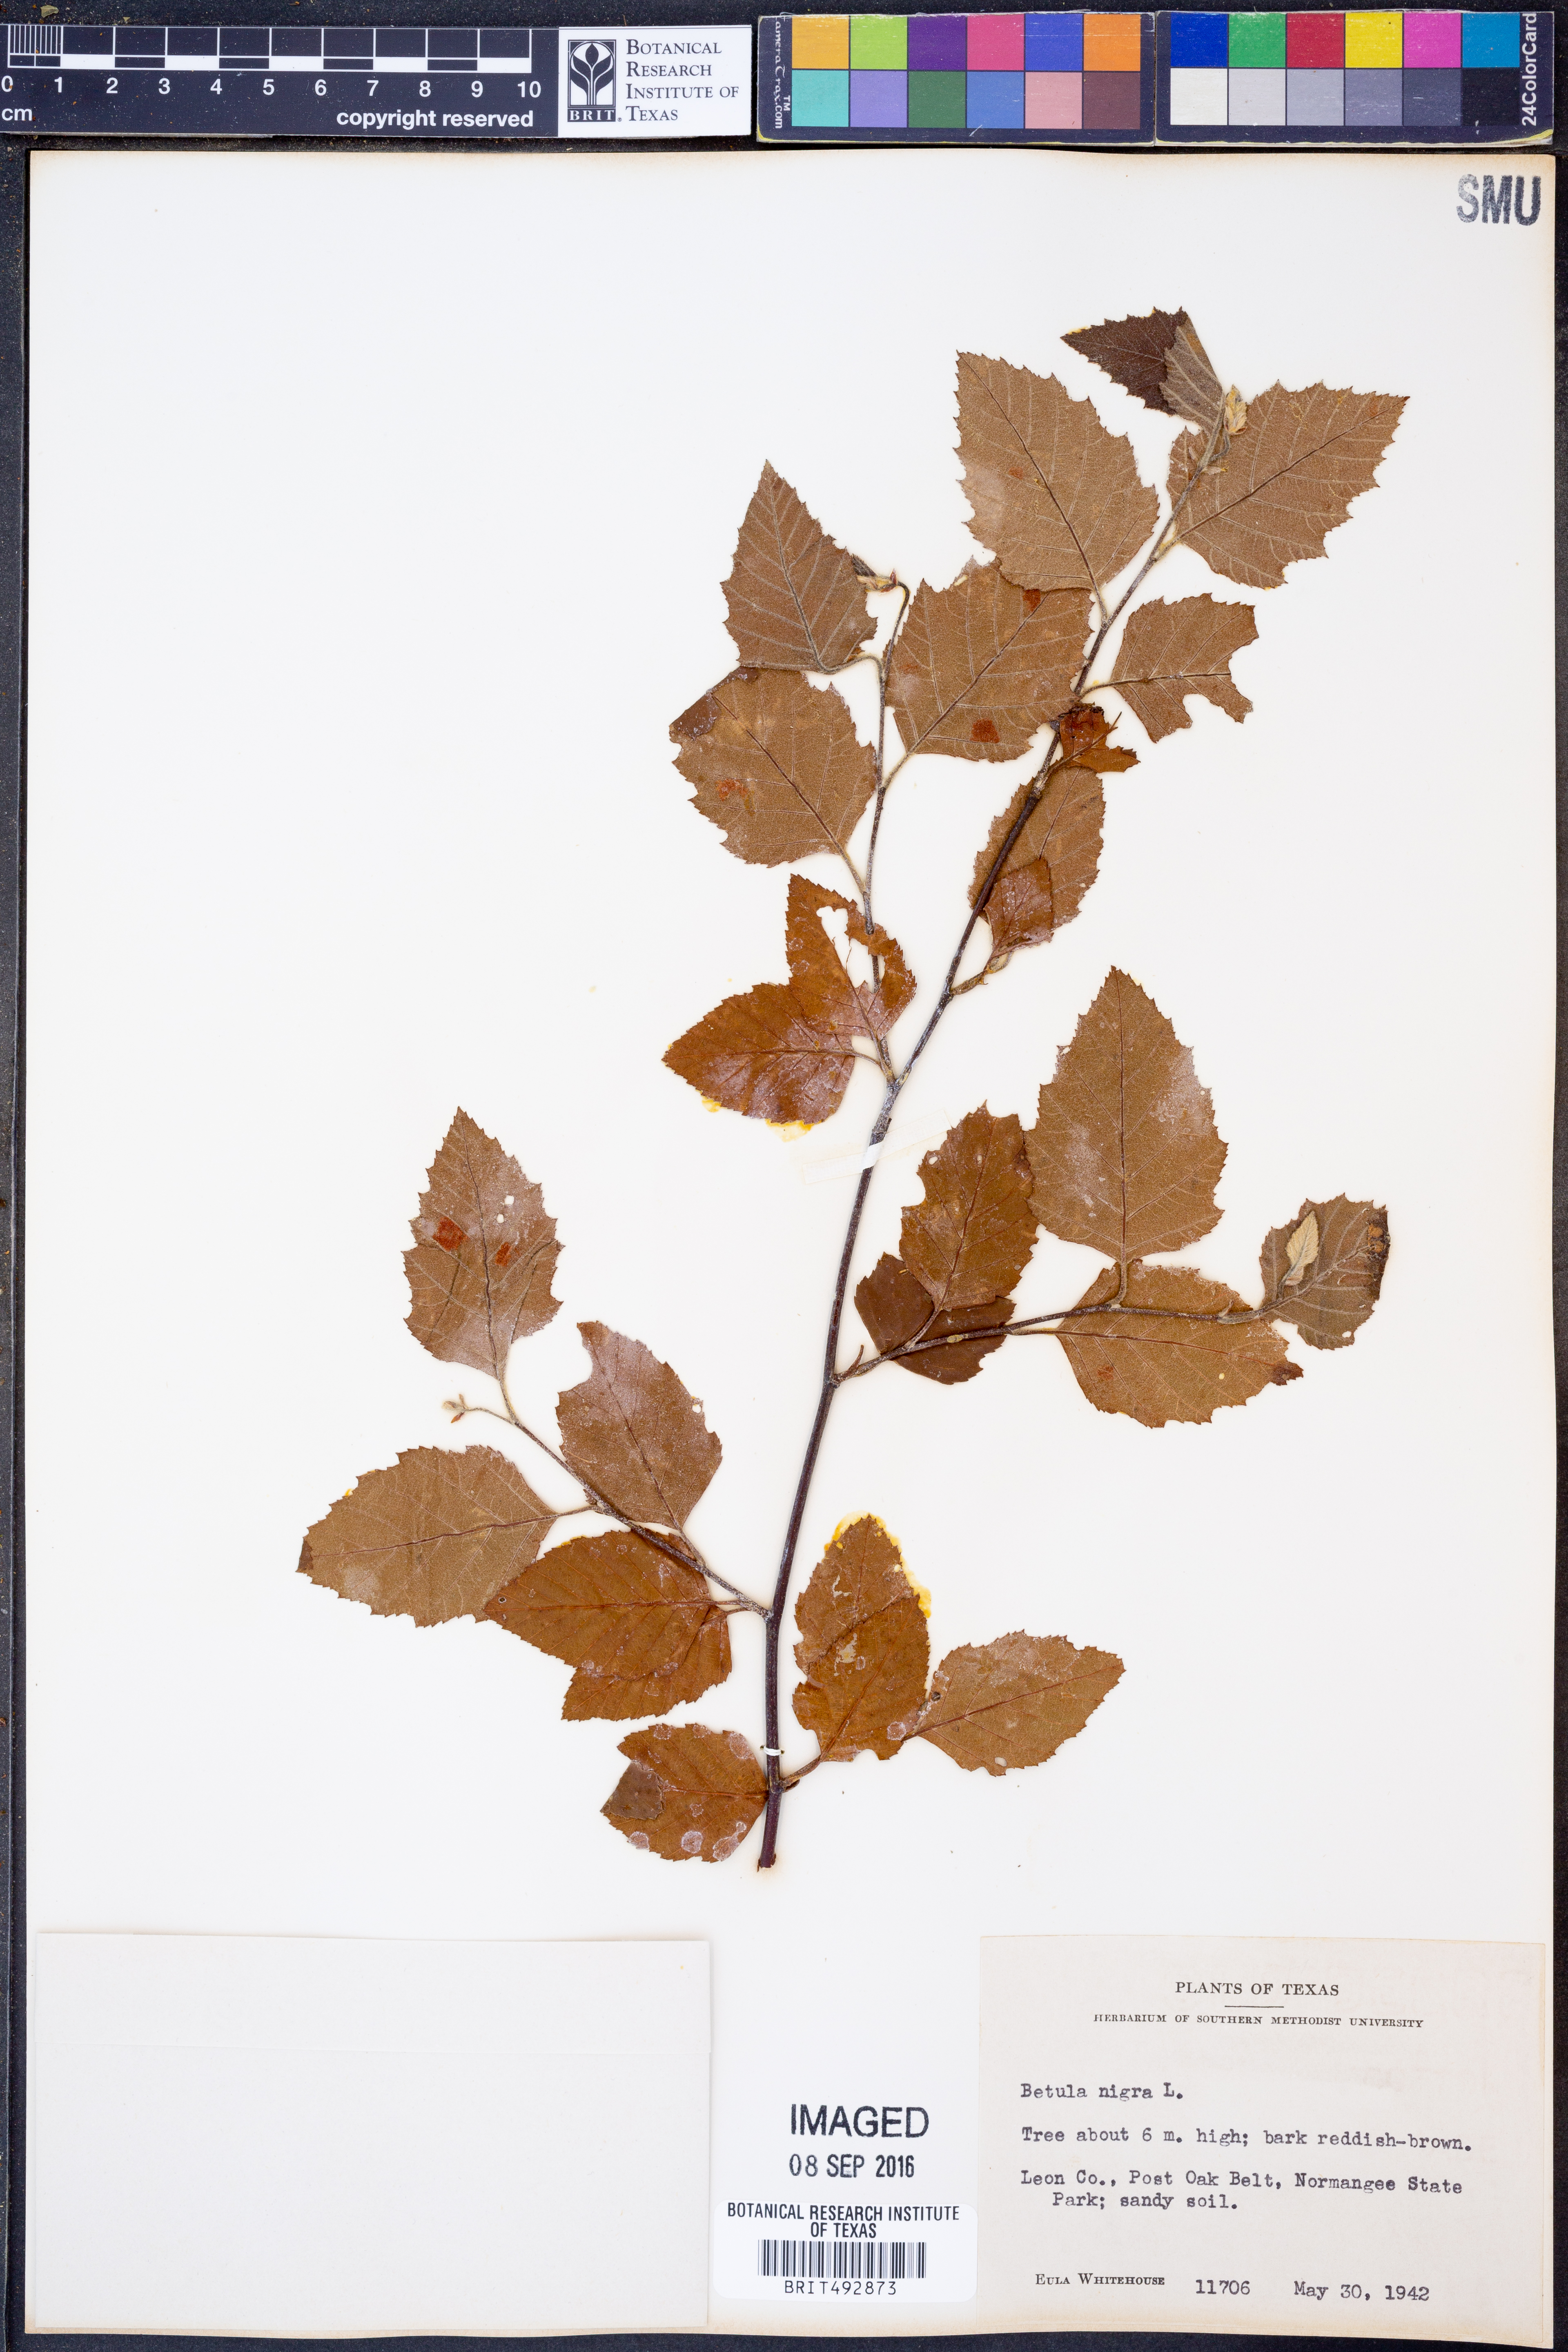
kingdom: Plantae
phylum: Tracheophyta
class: Magnoliopsida
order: Fagales
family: Betulaceae
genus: Betula
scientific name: Betula nigra
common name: Black birch
